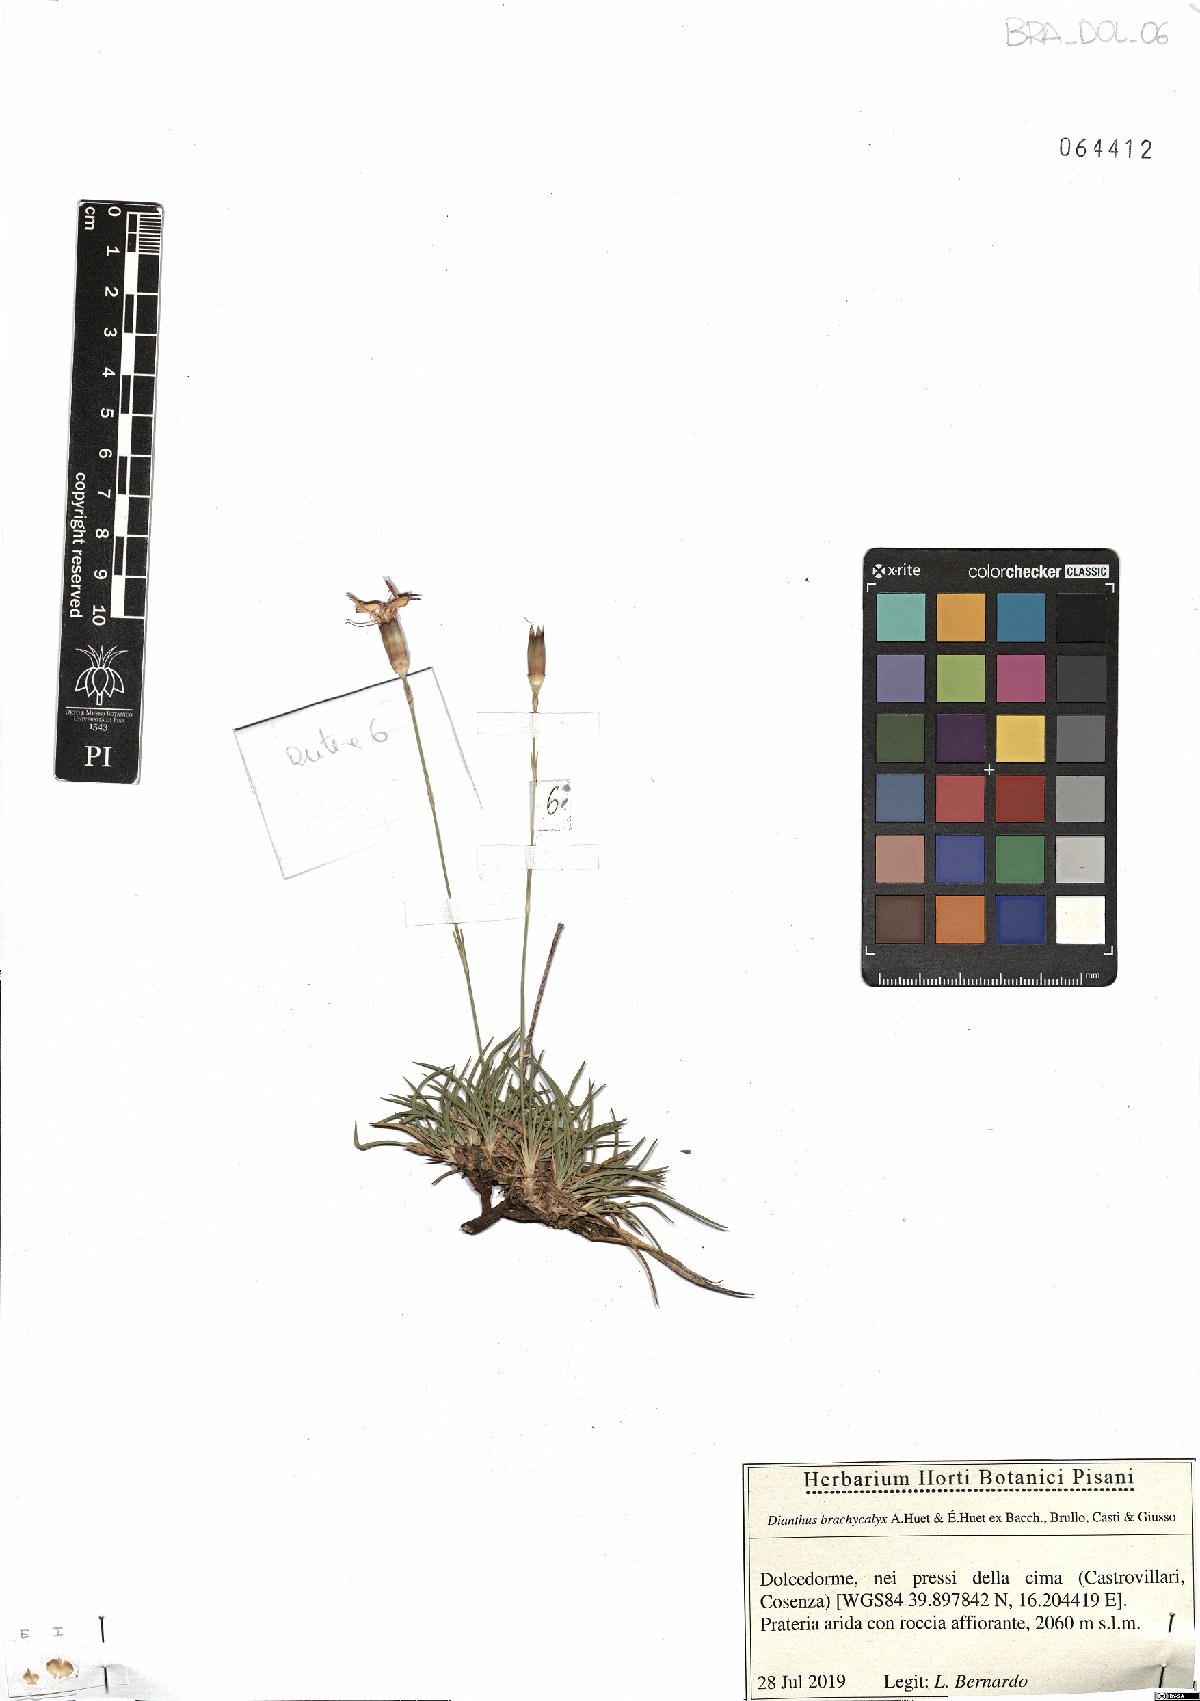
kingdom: Plantae
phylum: Tracheophyta
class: Magnoliopsida
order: Caryophyllales
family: Caryophyllaceae
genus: Dianthus
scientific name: Dianthus brachycalyx
